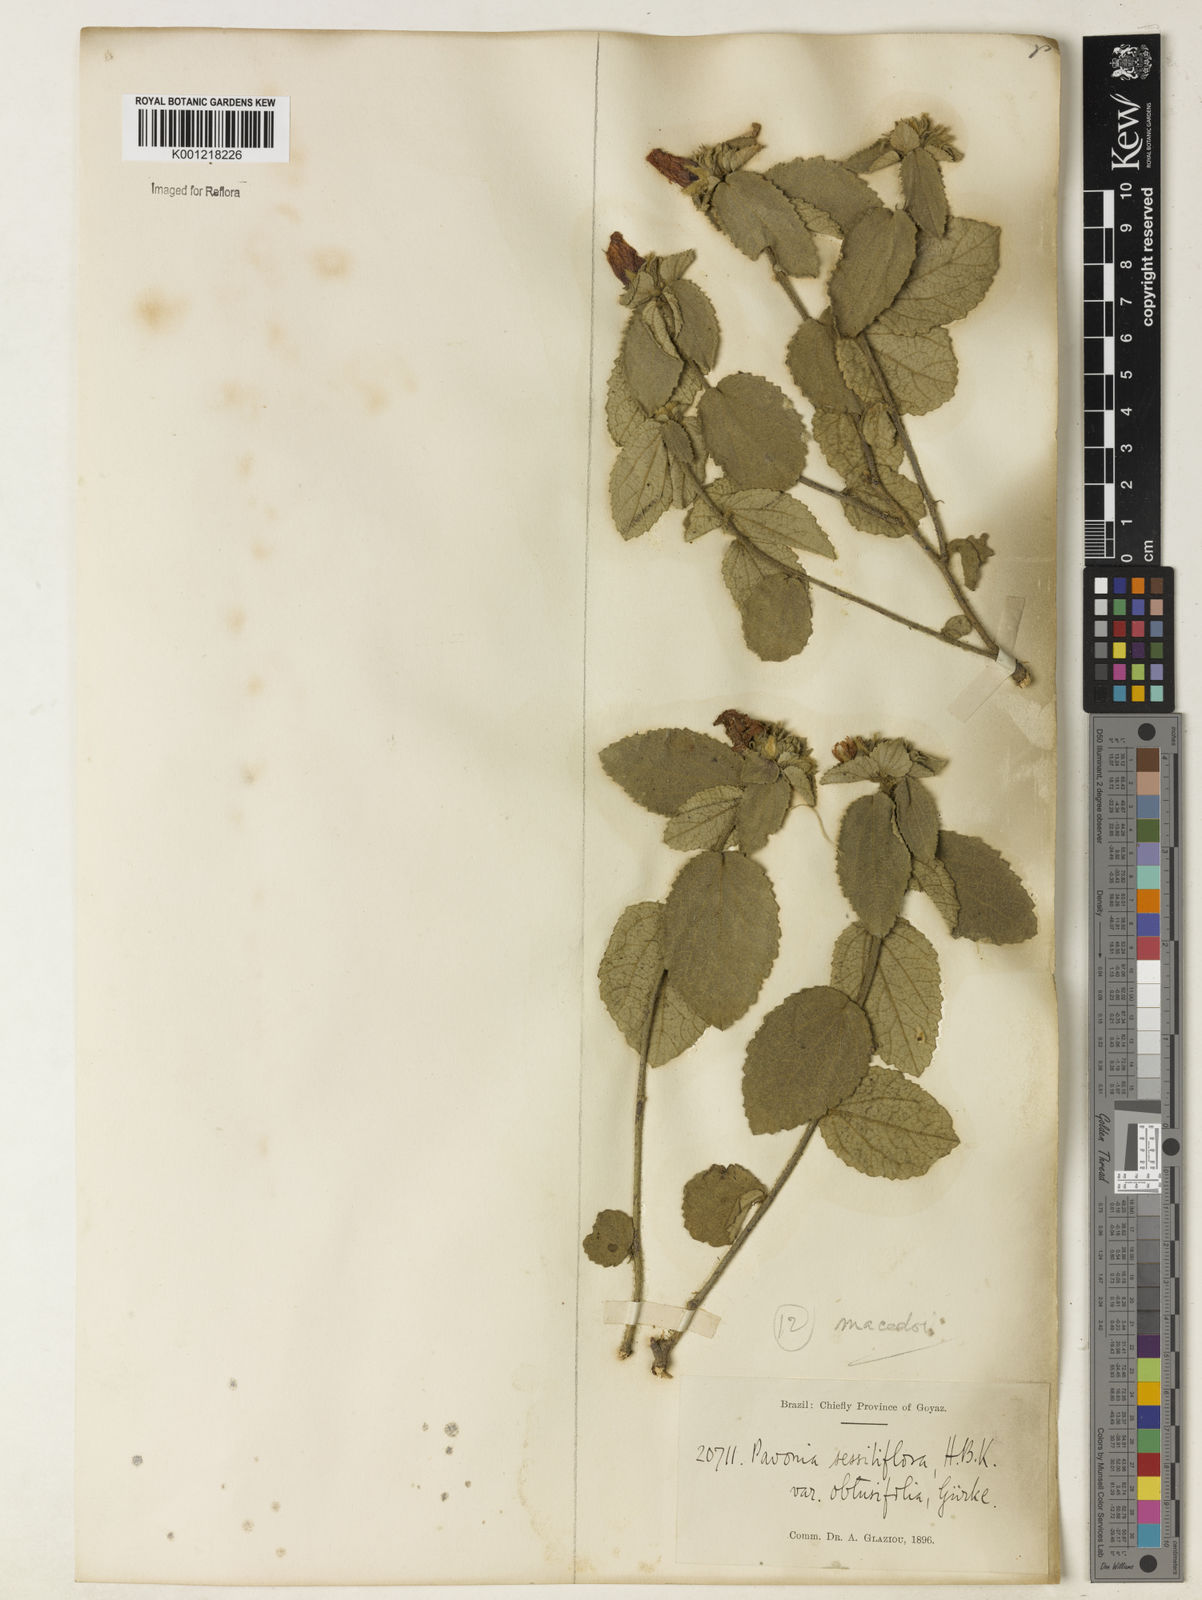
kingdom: Plantae
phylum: Tracheophyta
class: Magnoliopsida
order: Malvales
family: Malvaceae
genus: Peltaea
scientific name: Peltaea
